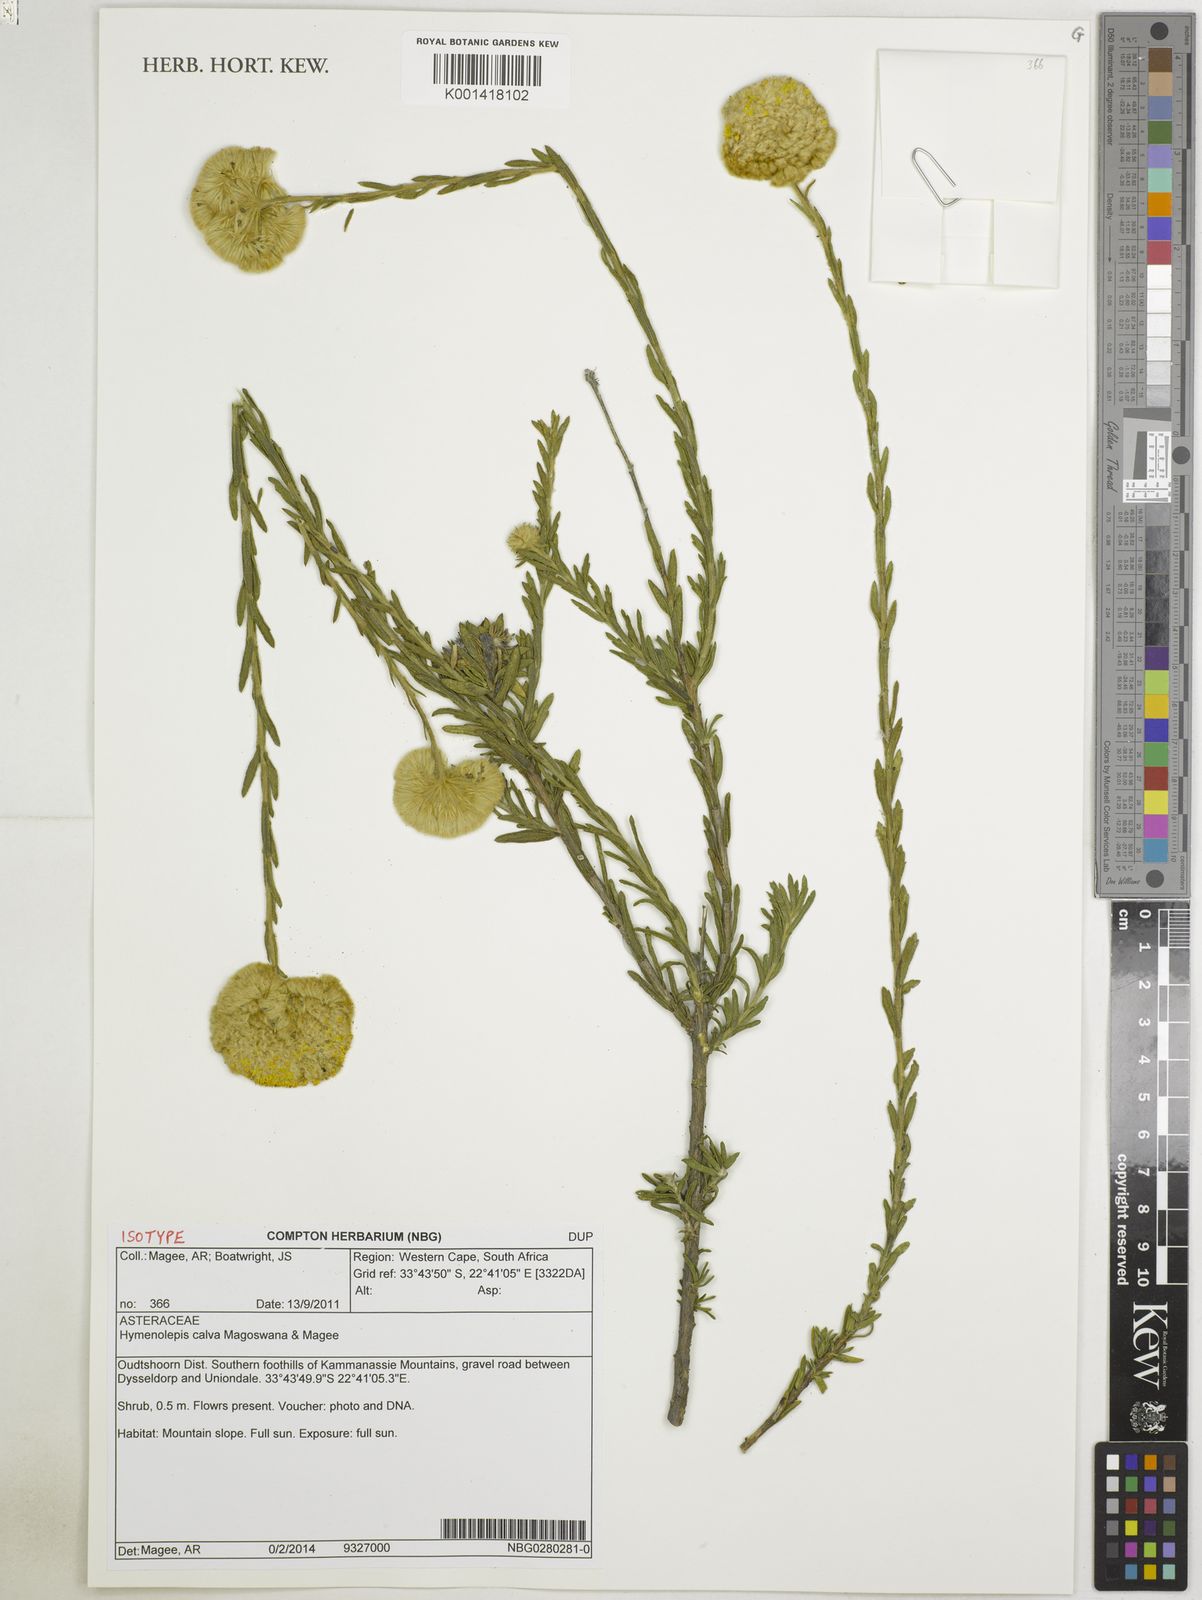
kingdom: Plantae
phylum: Tracheophyta
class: Magnoliopsida
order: Asterales
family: Asteraceae
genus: Hymenolepis
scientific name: Hymenolepis calva
